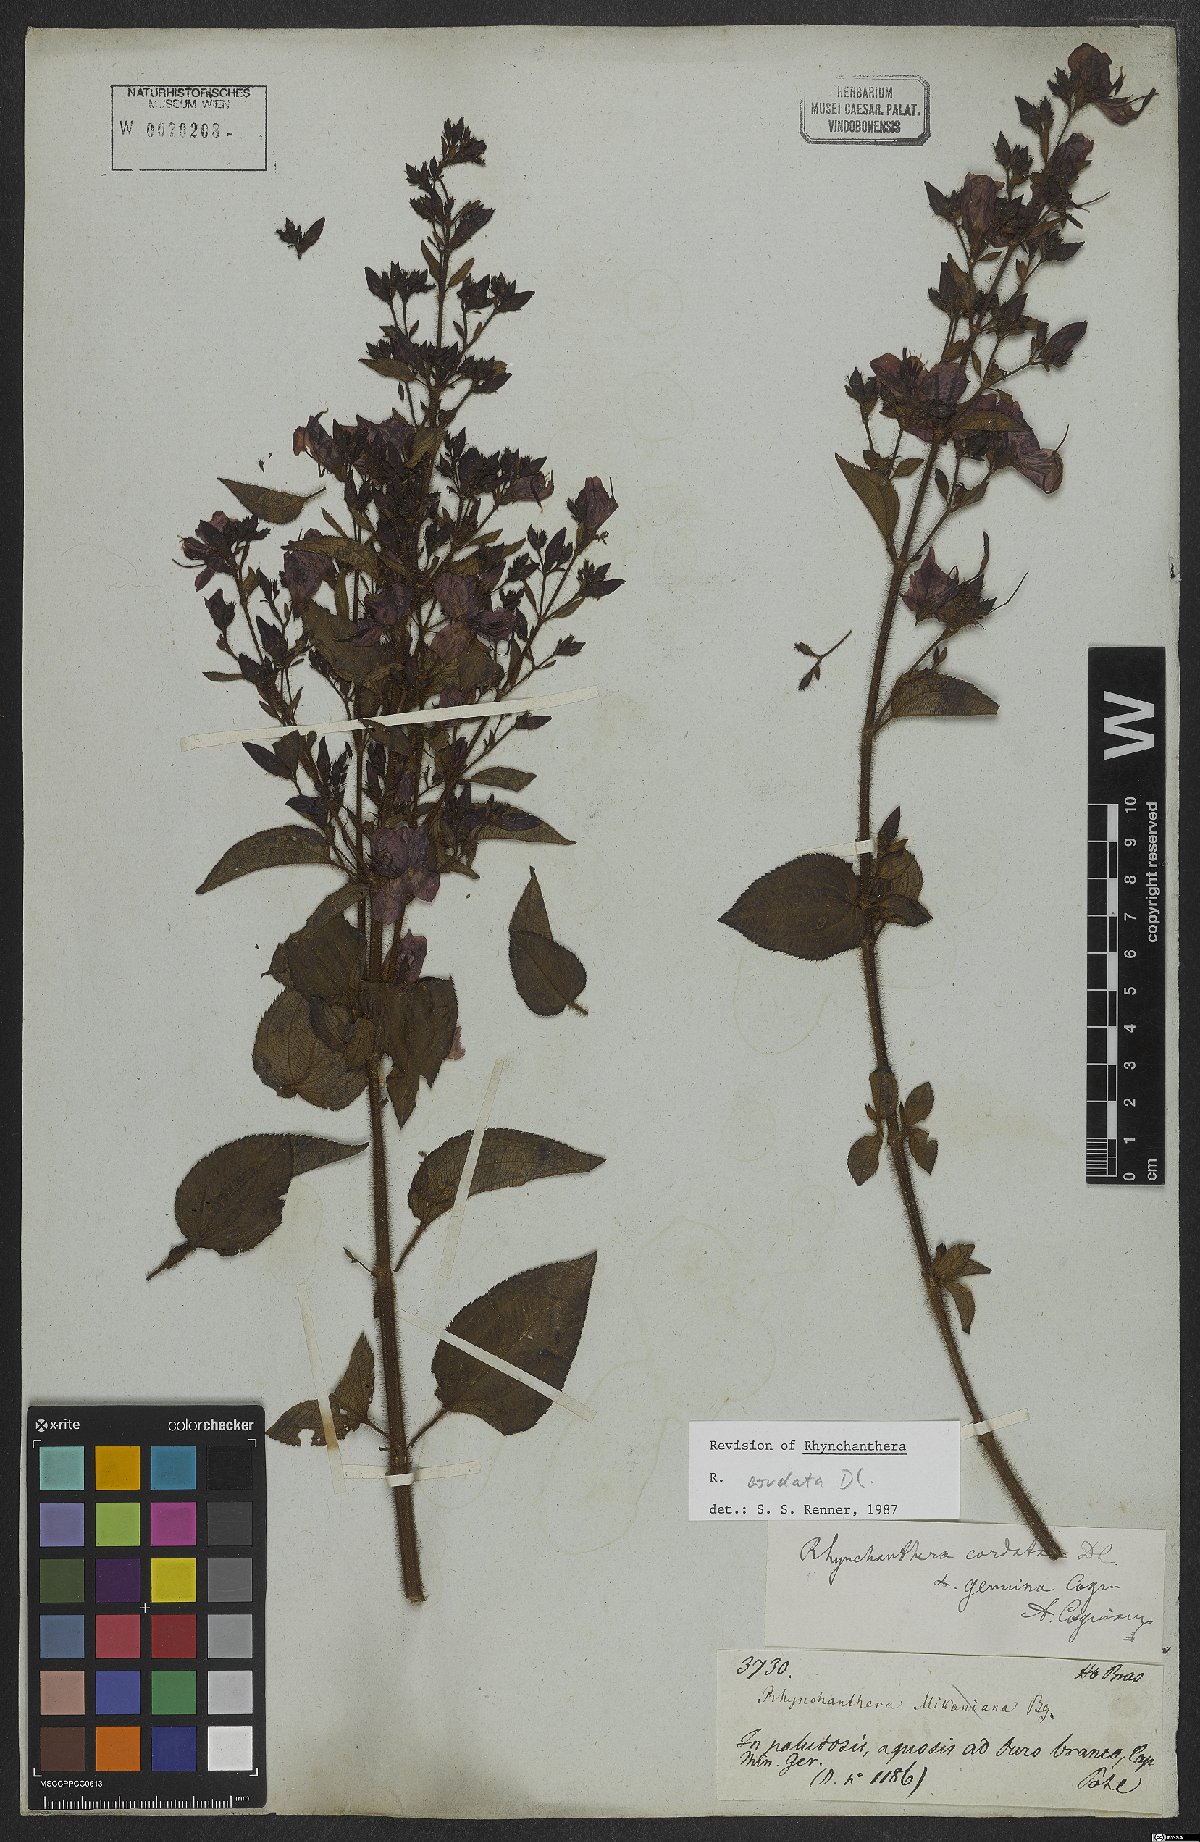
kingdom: Plantae
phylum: Tracheophyta
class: Magnoliopsida
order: Myrtales
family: Melastomataceae
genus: Rhynchanthera
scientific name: Rhynchanthera cordata
